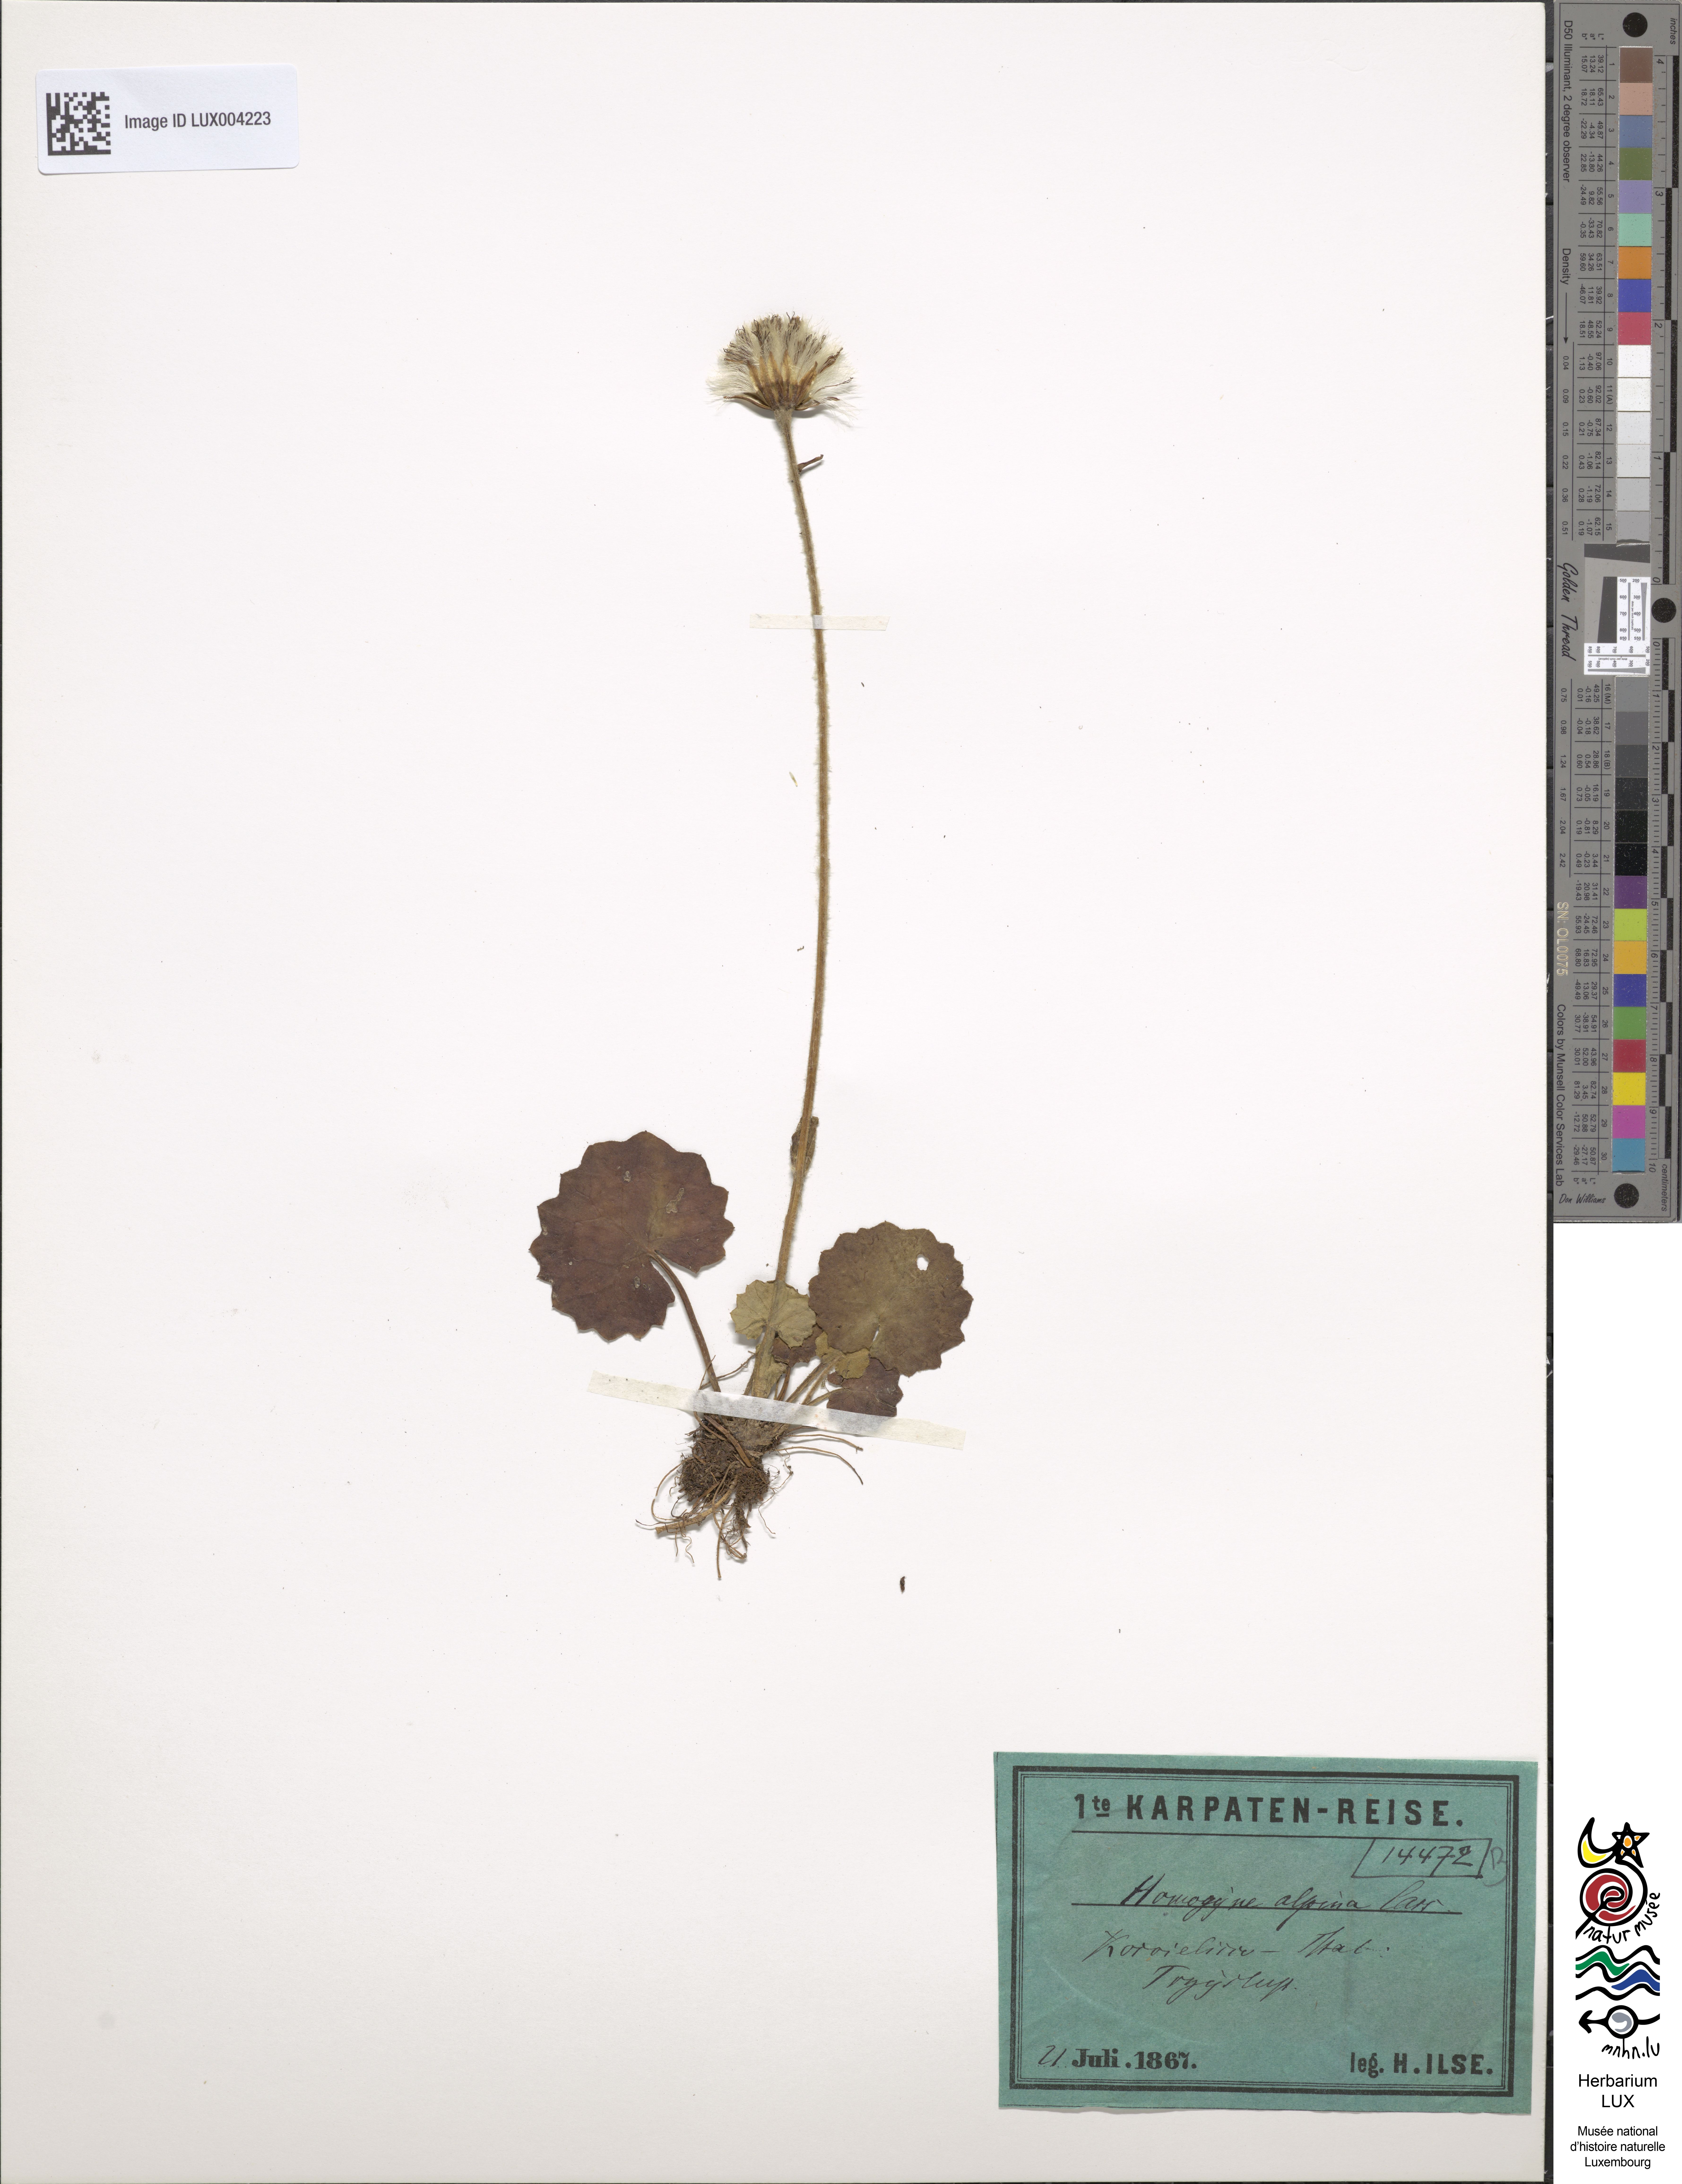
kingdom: Plantae
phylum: Tracheophyta
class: Magnoliopsida
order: Asterales
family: Asteraceae
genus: Homogyne
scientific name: Homogyne alpina
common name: Purple colt's-foot
